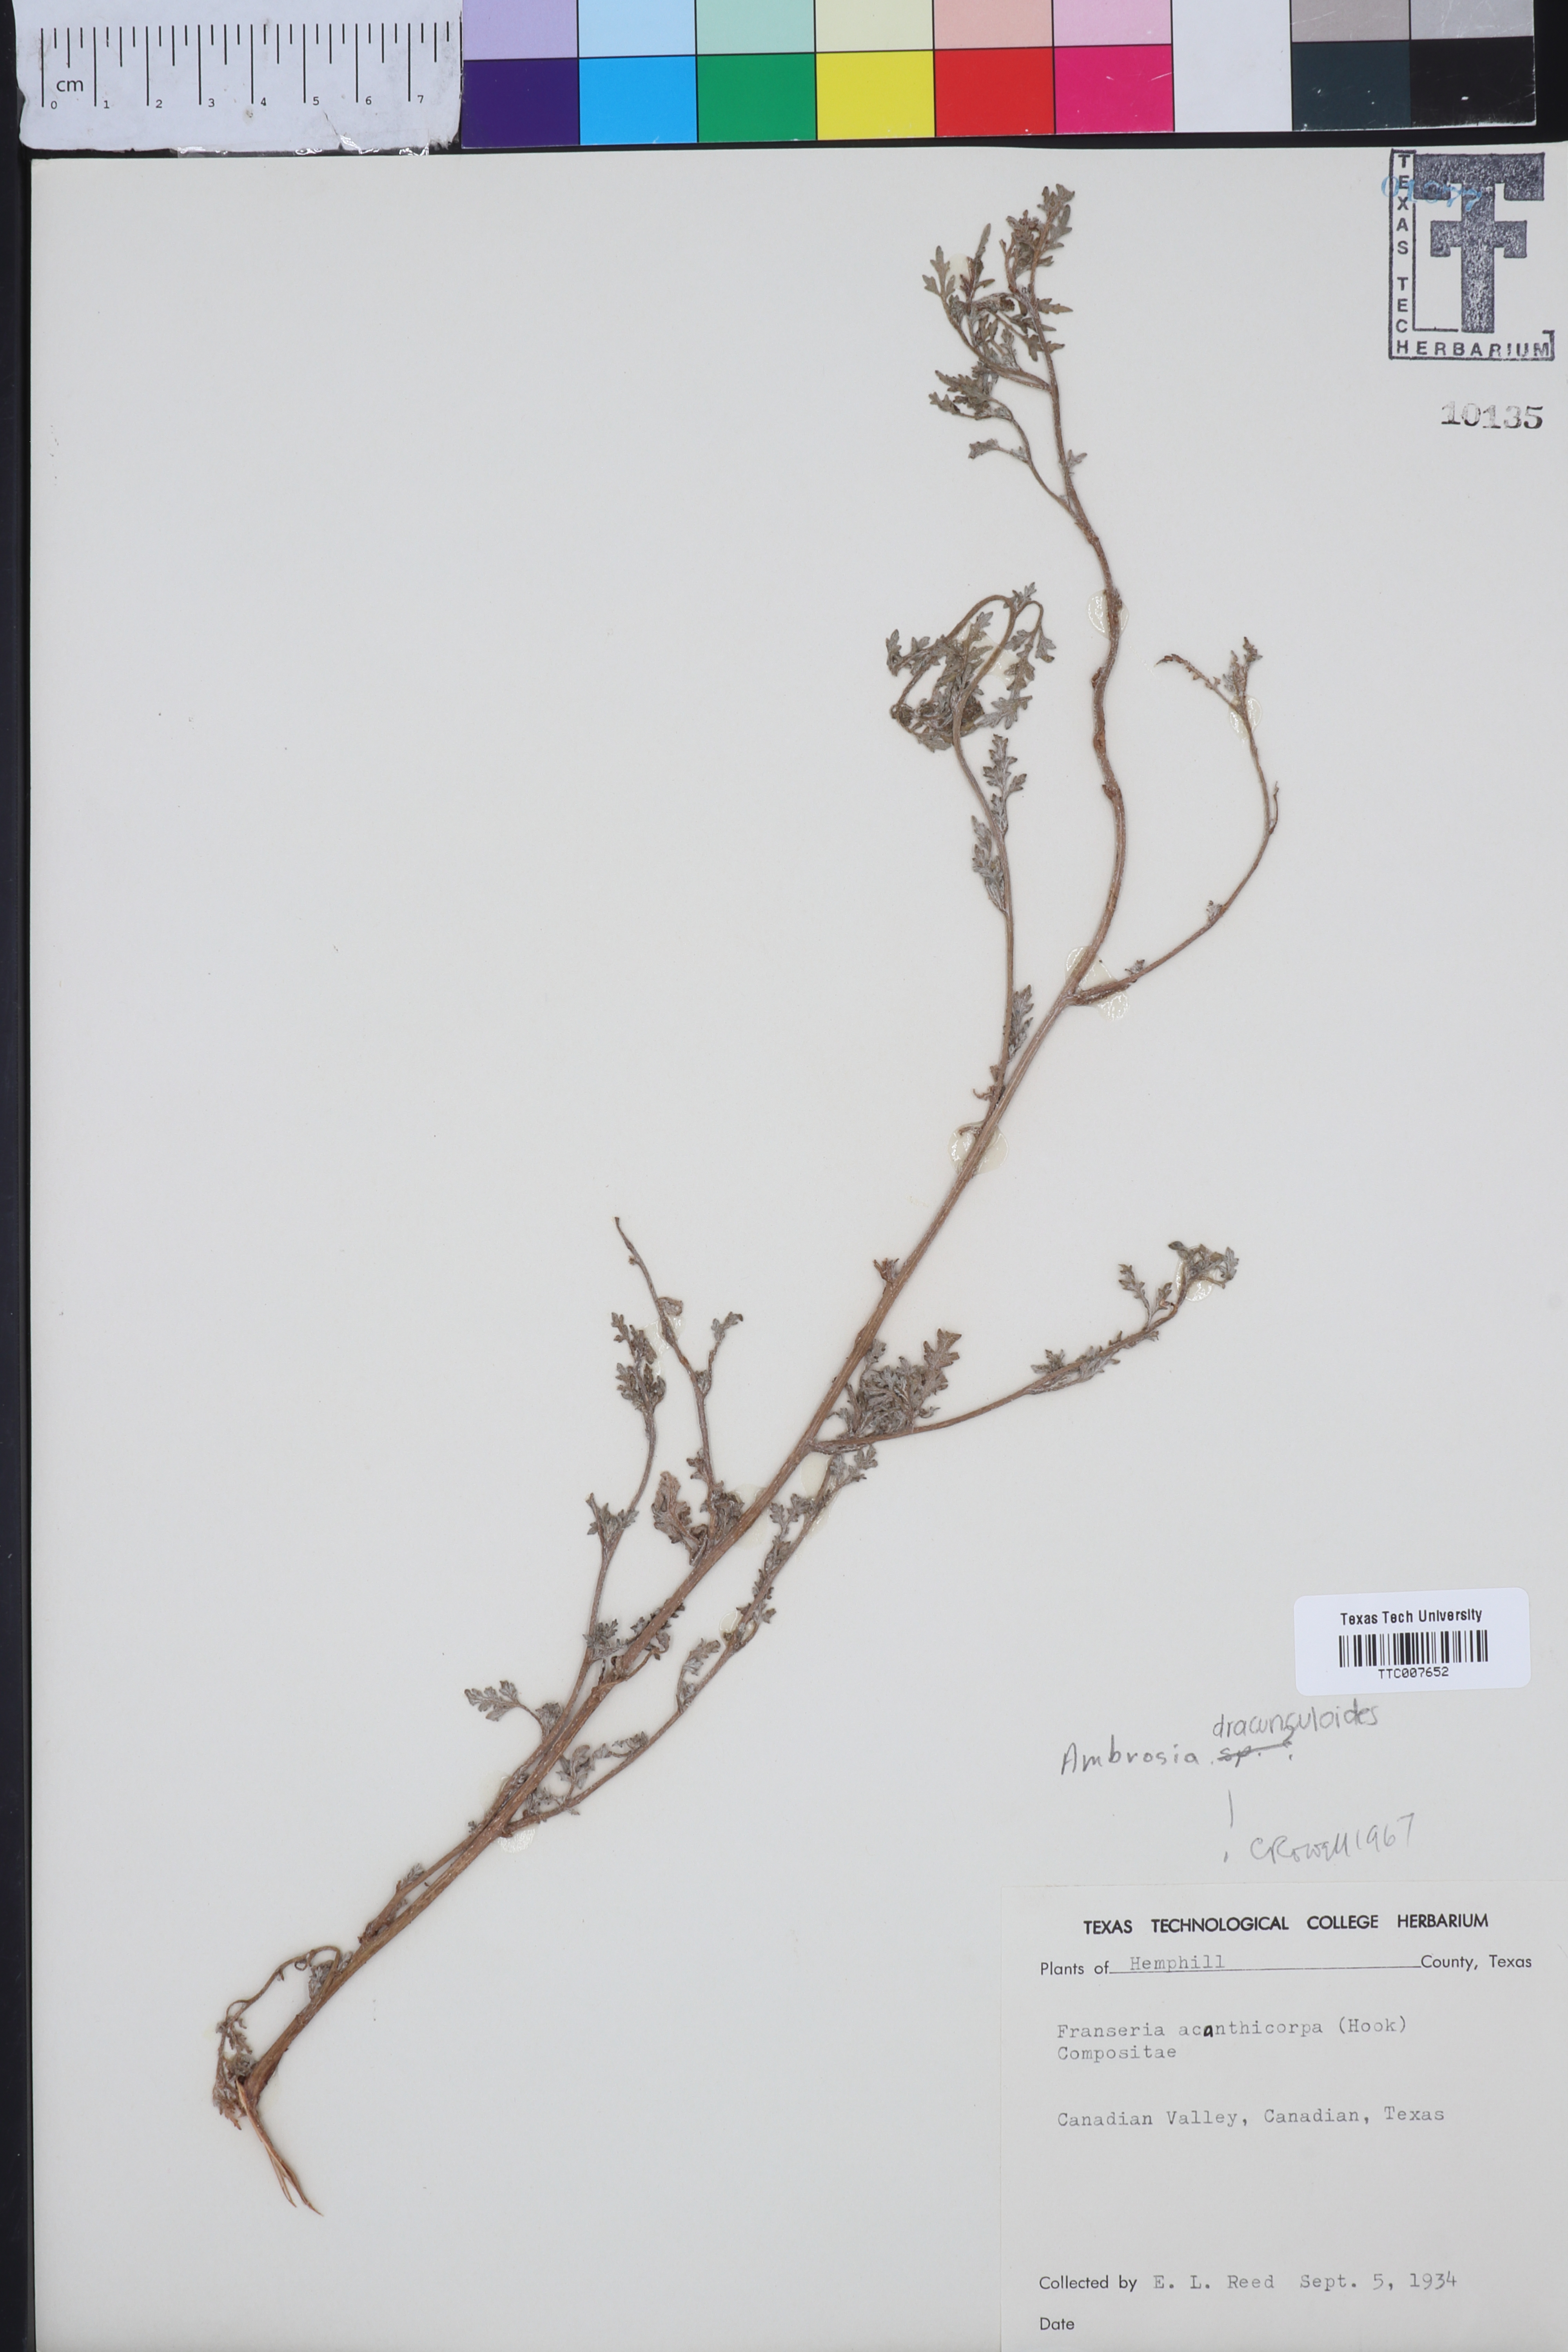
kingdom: Plantae
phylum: Tracheophyta
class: Magnoliopsida
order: Asterales
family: Asteraceae
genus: Ambrosia
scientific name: Ambrosia
